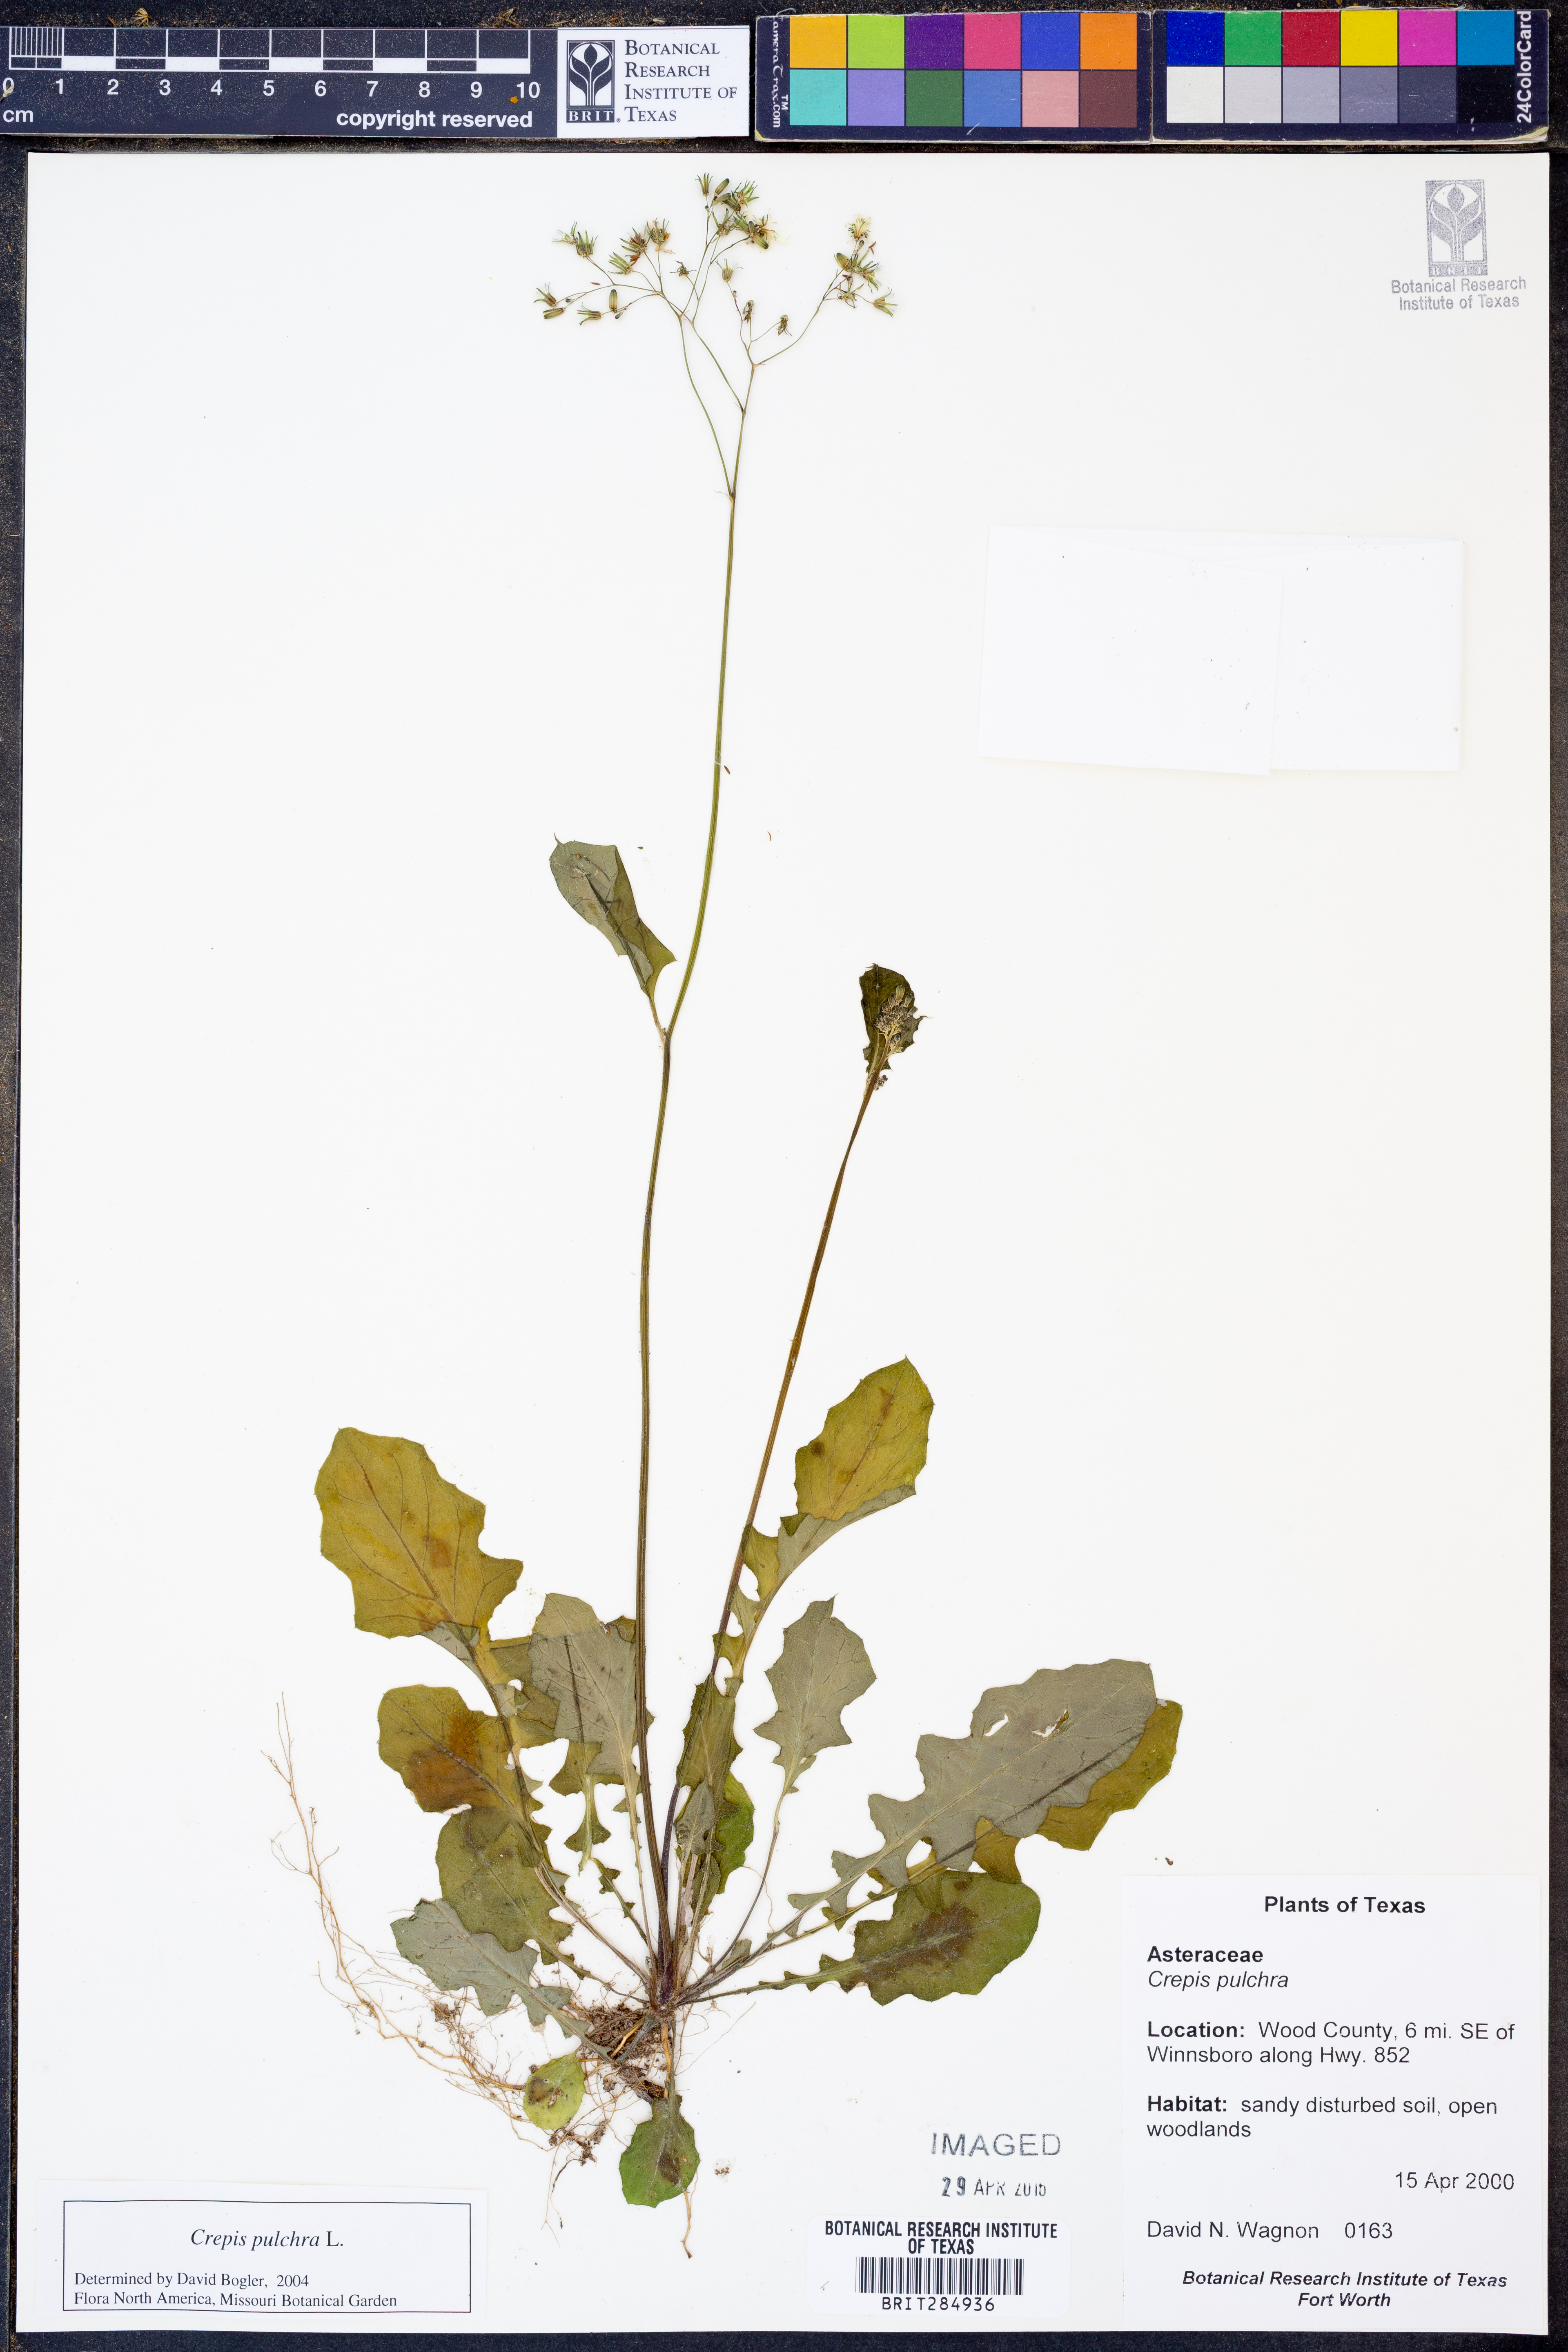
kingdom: Plantae
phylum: Tracheophyta
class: Magnoliopsida
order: Asterales
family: Asteraceae
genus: Crepis
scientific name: Crepis pulchra
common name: Hawk's-beard
